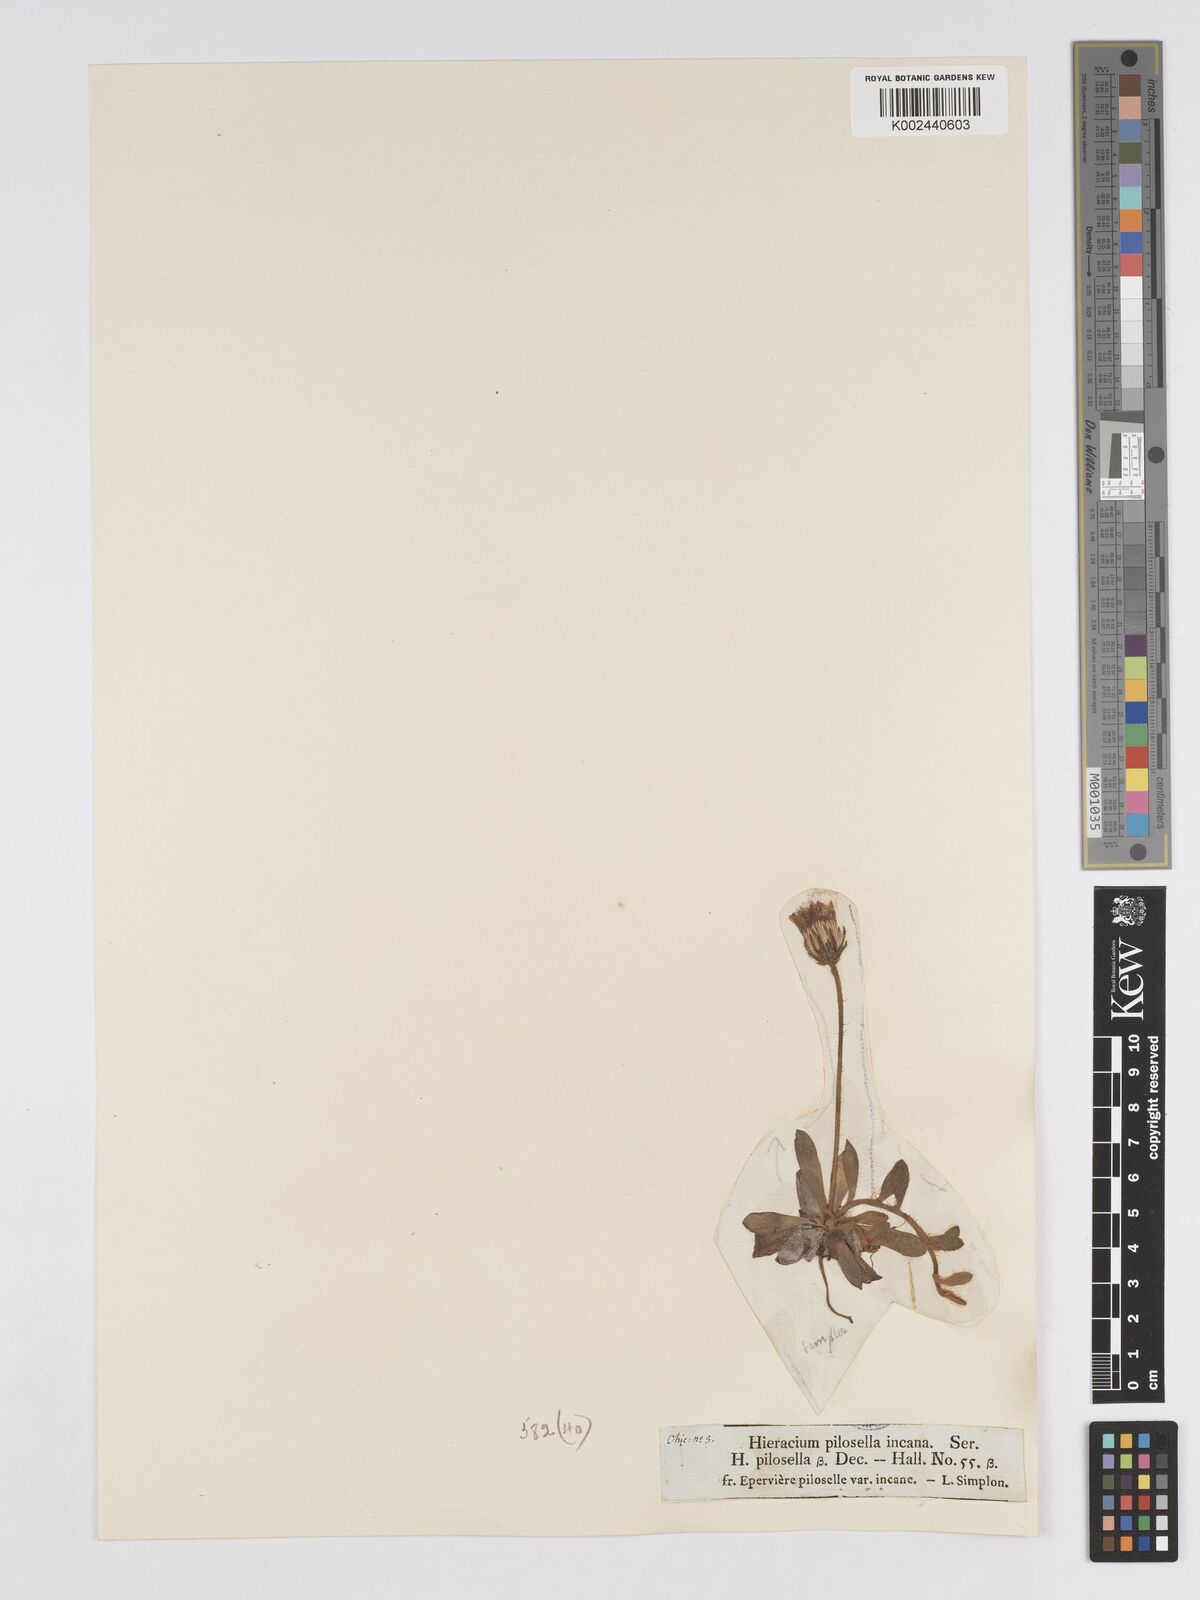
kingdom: Plantae
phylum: Tracheophyta
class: Magnoliopsida
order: Asterales
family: Asteraceae
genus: Pilosella
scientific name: Pilosella longisquama
